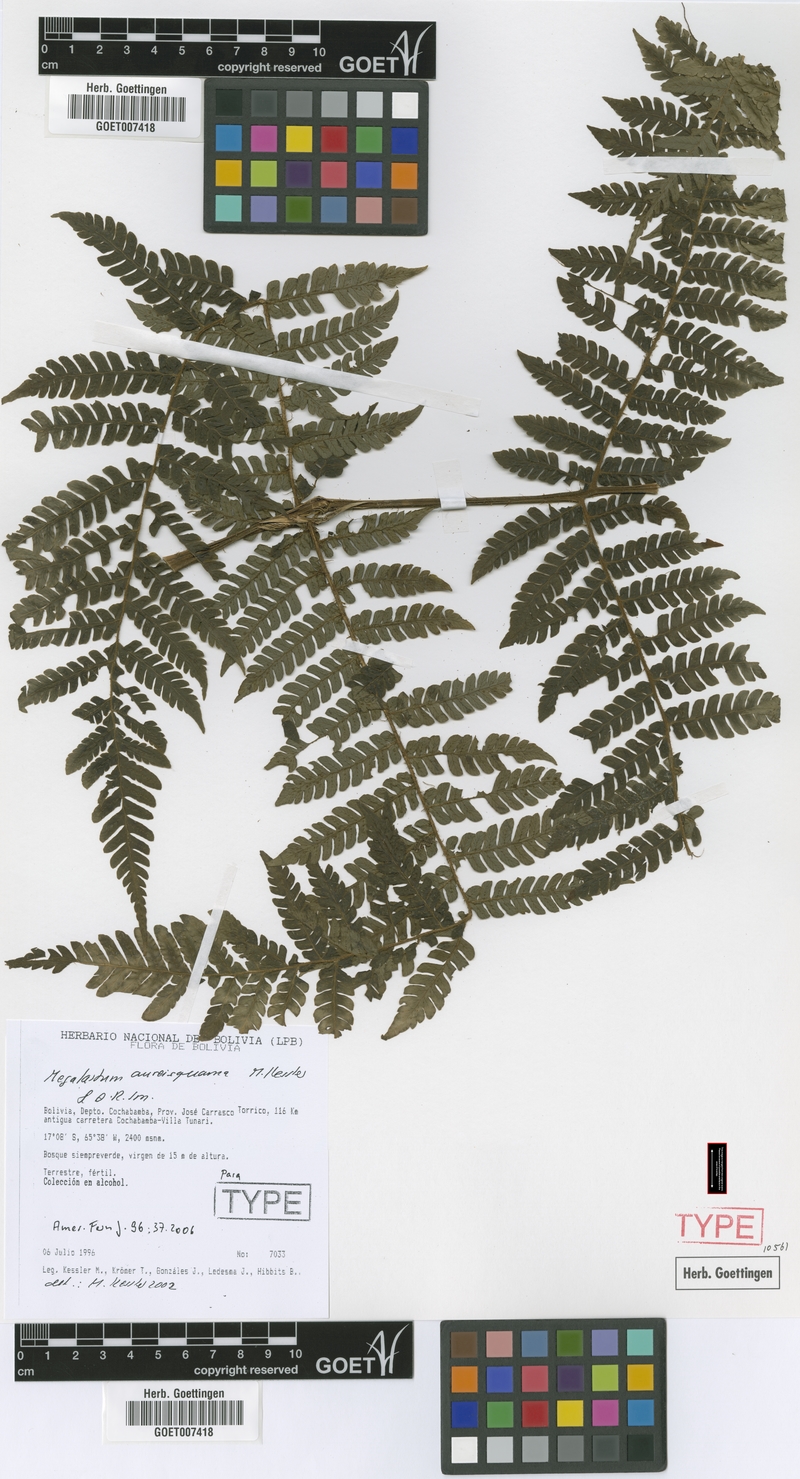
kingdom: Plantae
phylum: Tracheophyta
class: Polypodiopsida
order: Polypodiales
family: Dryopteridaceae
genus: Megalastrum
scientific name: Megalastrum aureisquama
